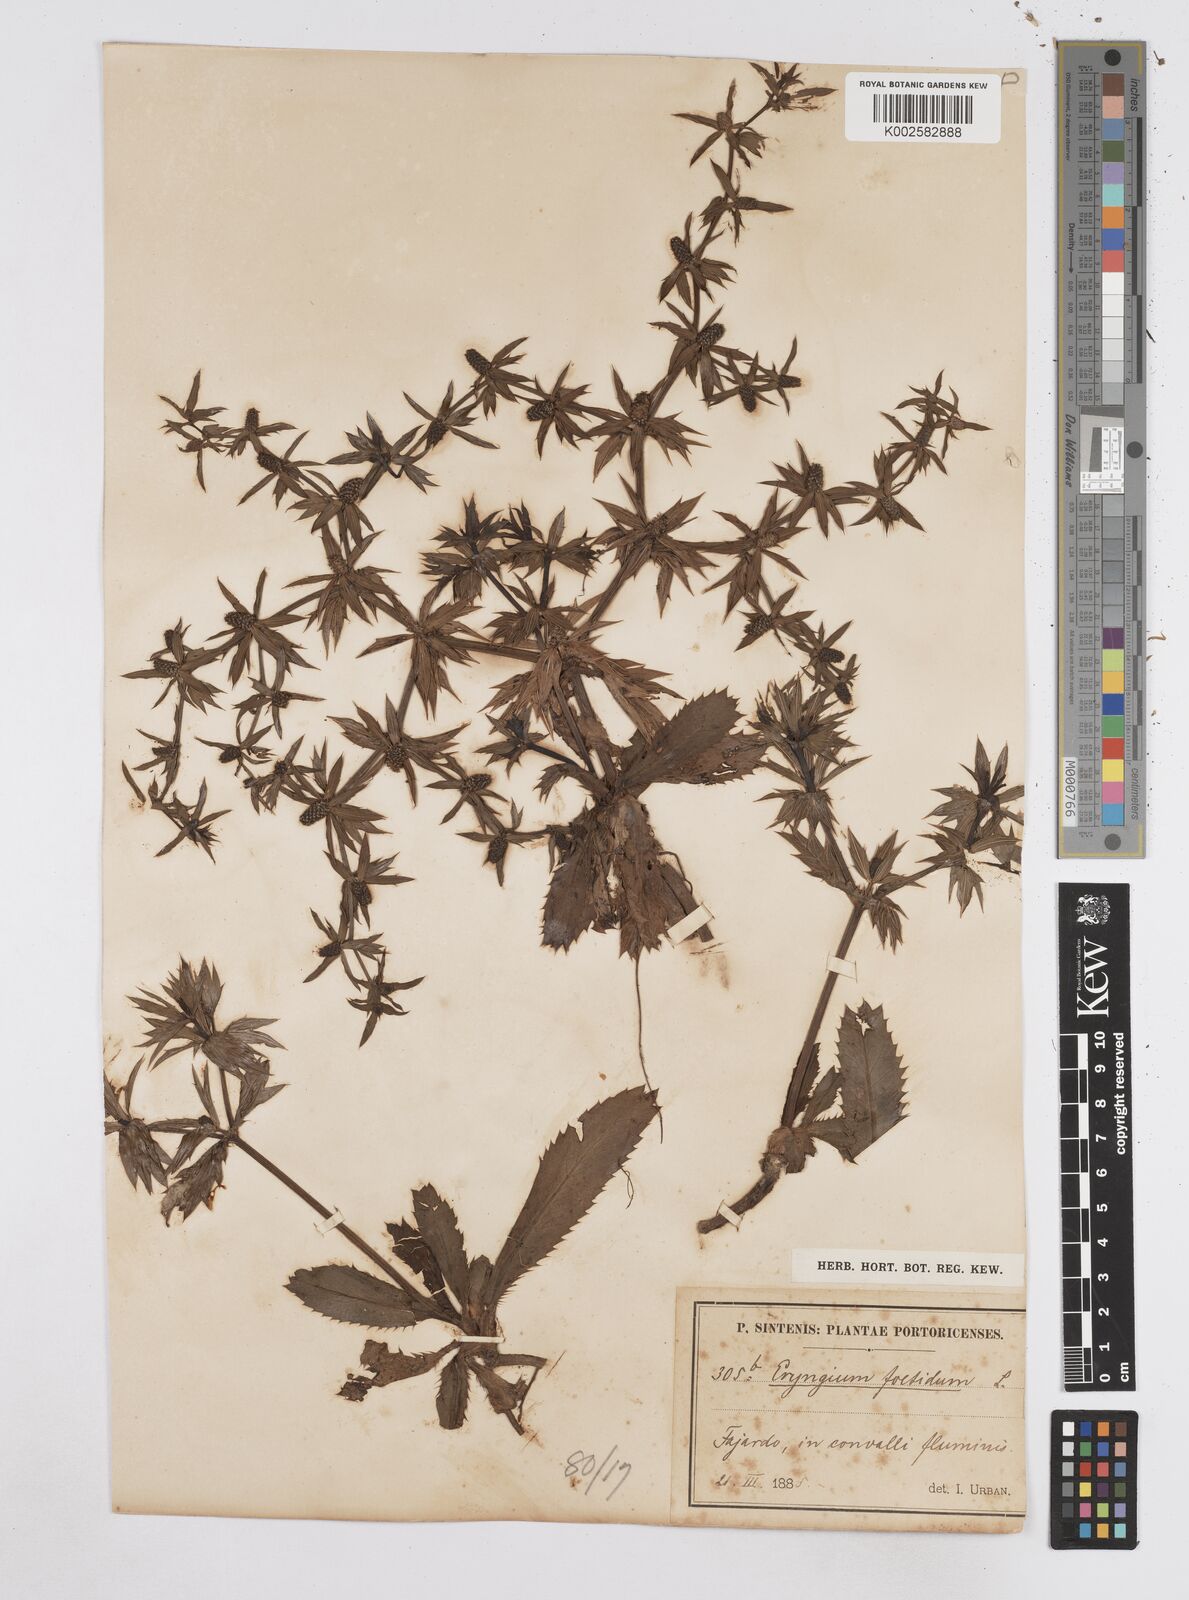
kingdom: Plantae
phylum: Tracheophyta
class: Magnoliopsida
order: Apiales
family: Apiaceae
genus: Eryngium
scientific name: Eryngium foetidum
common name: Fitweed
